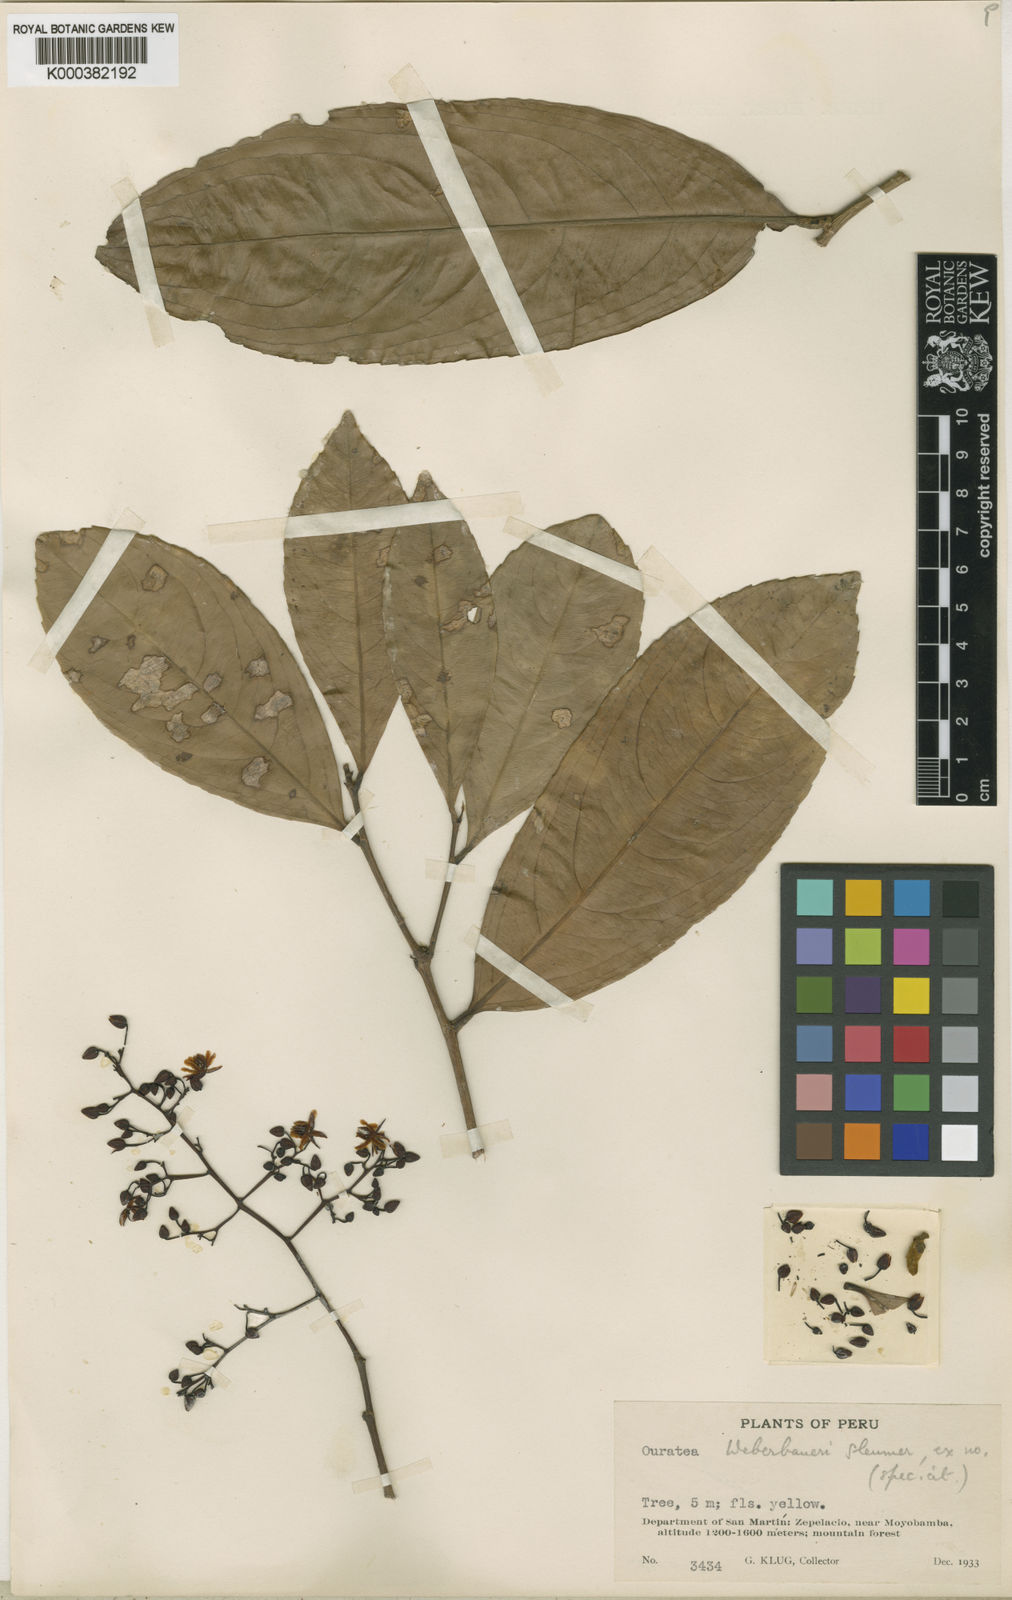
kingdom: Plantae
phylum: Tracheophyta
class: Magnoliopsida
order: Malpighiales
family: Ochnaceae
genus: Ouratea
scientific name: Ouratea weberbaueri
